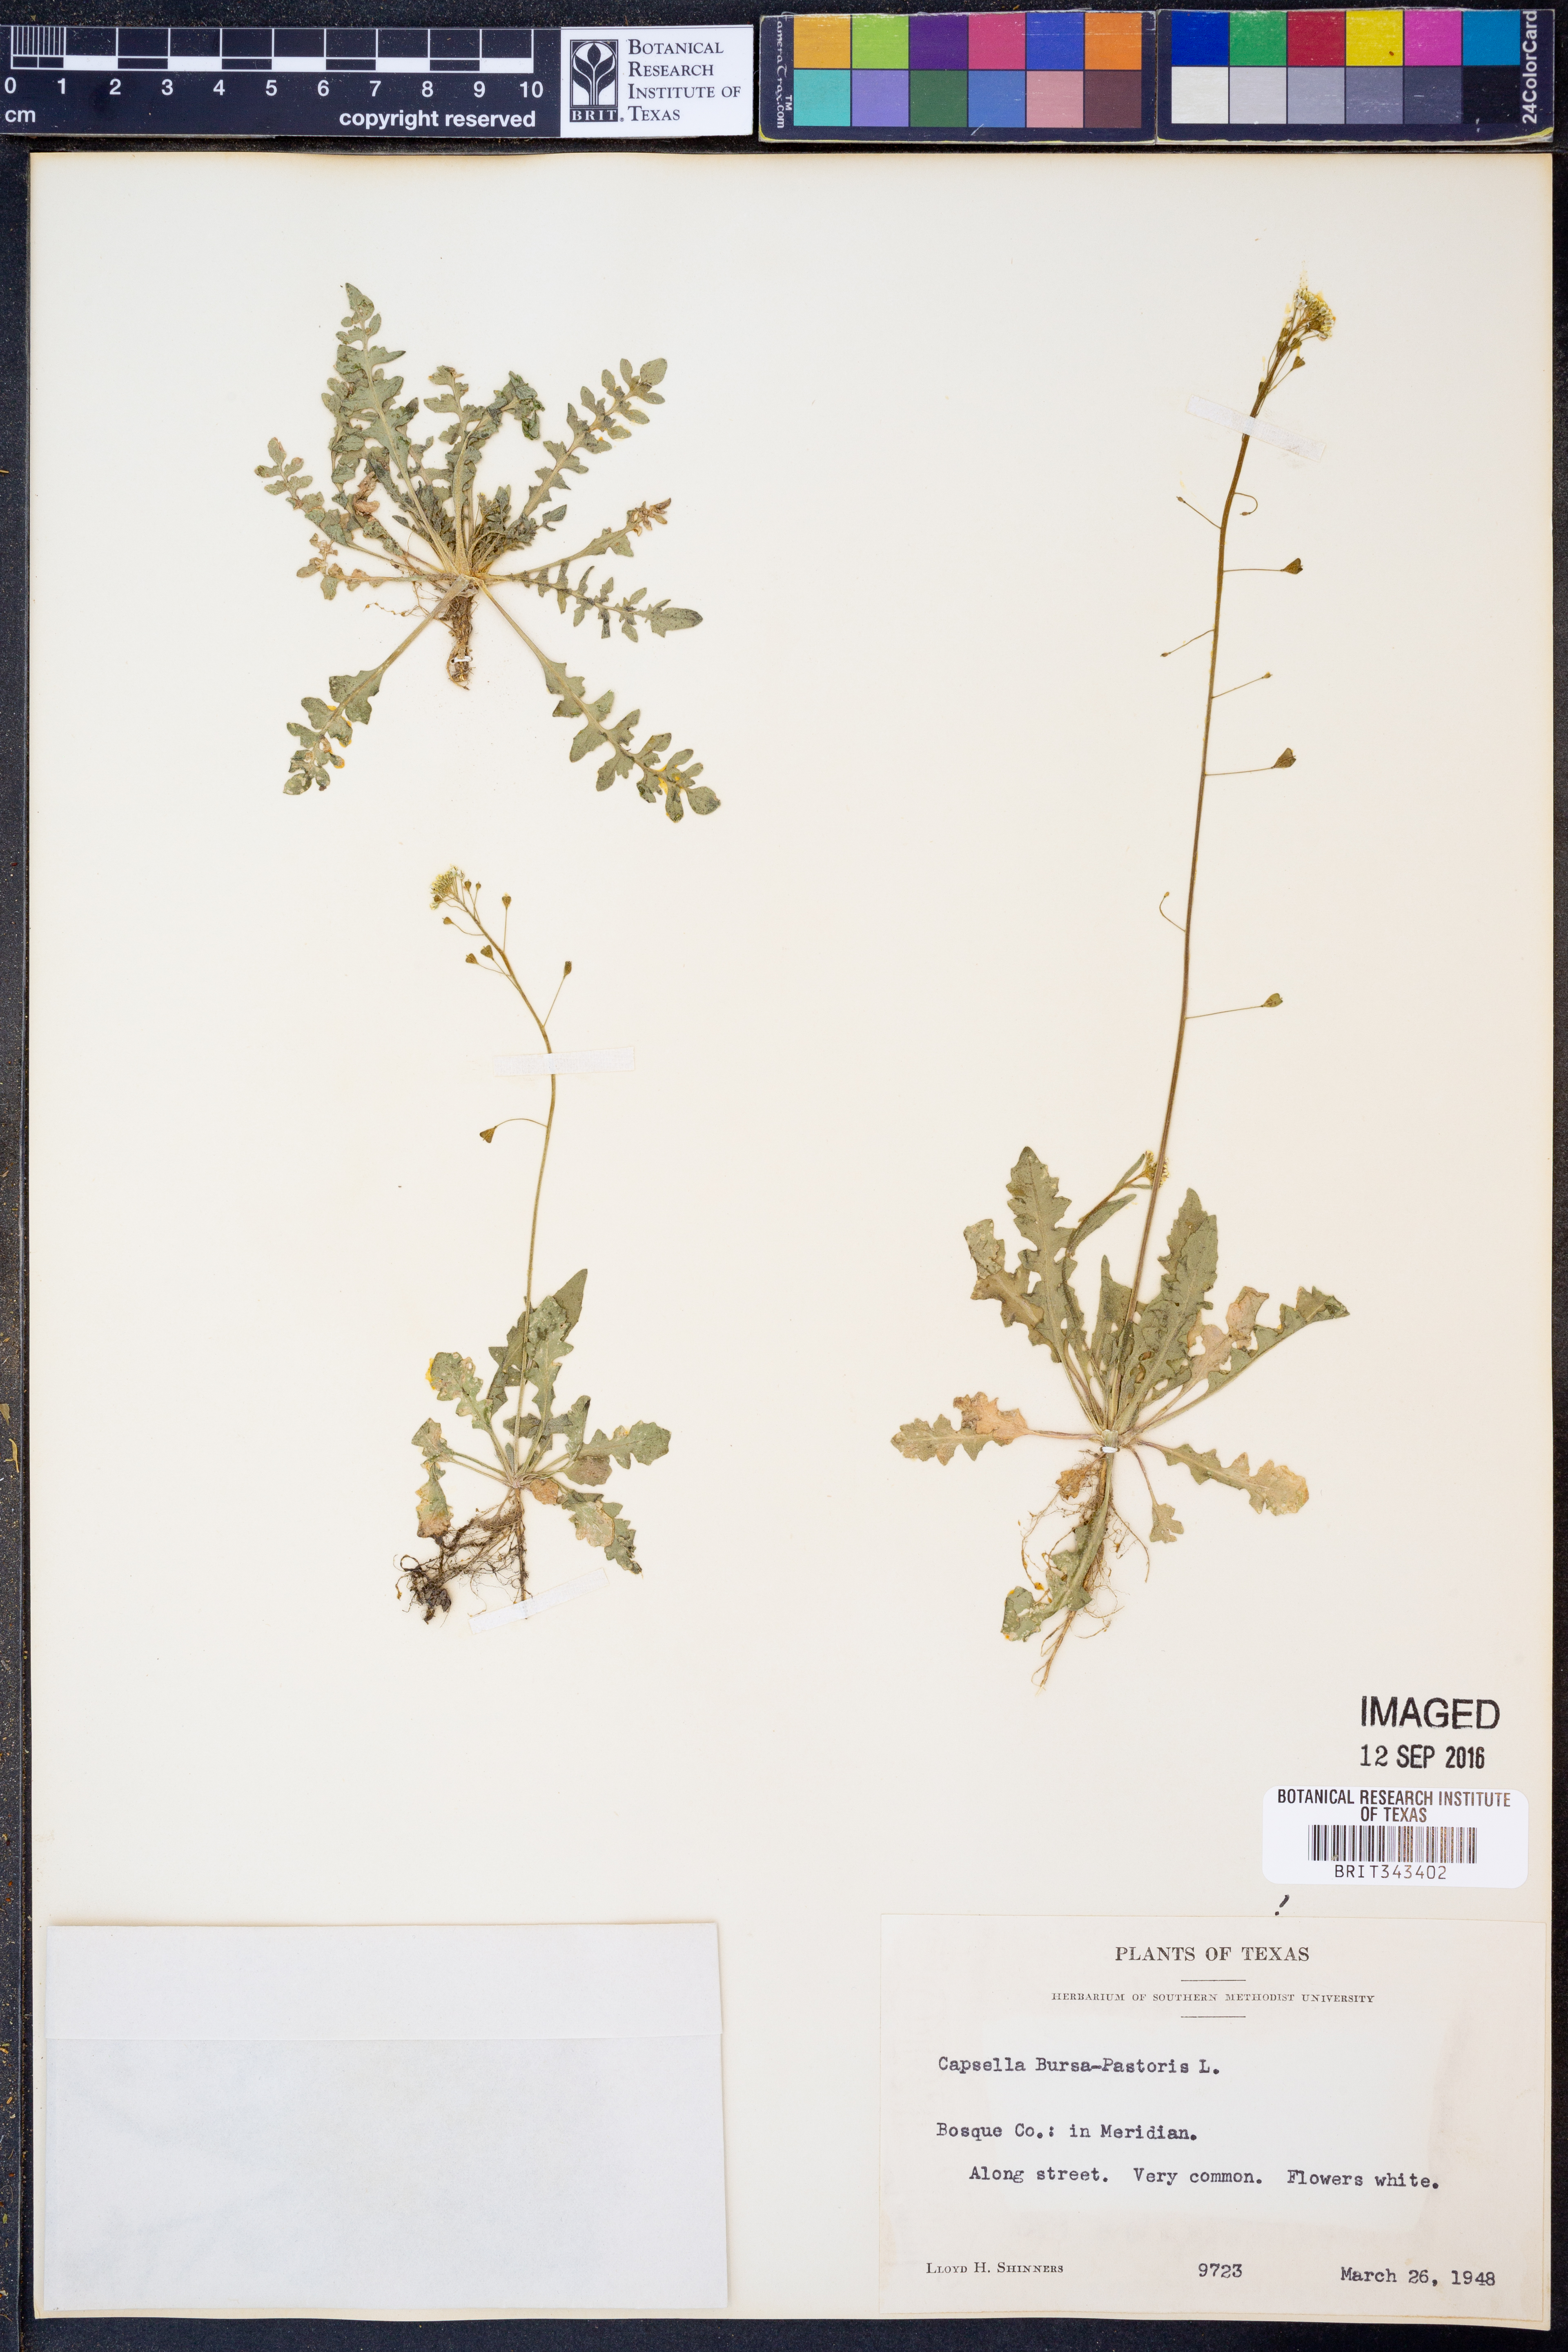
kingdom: Plantae
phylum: Tracheophyta
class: Magnoliopsida
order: Brassicales
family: Brassicaceae
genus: Capsella
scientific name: Capsella bursa-pastoris
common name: Shepherd's purse
